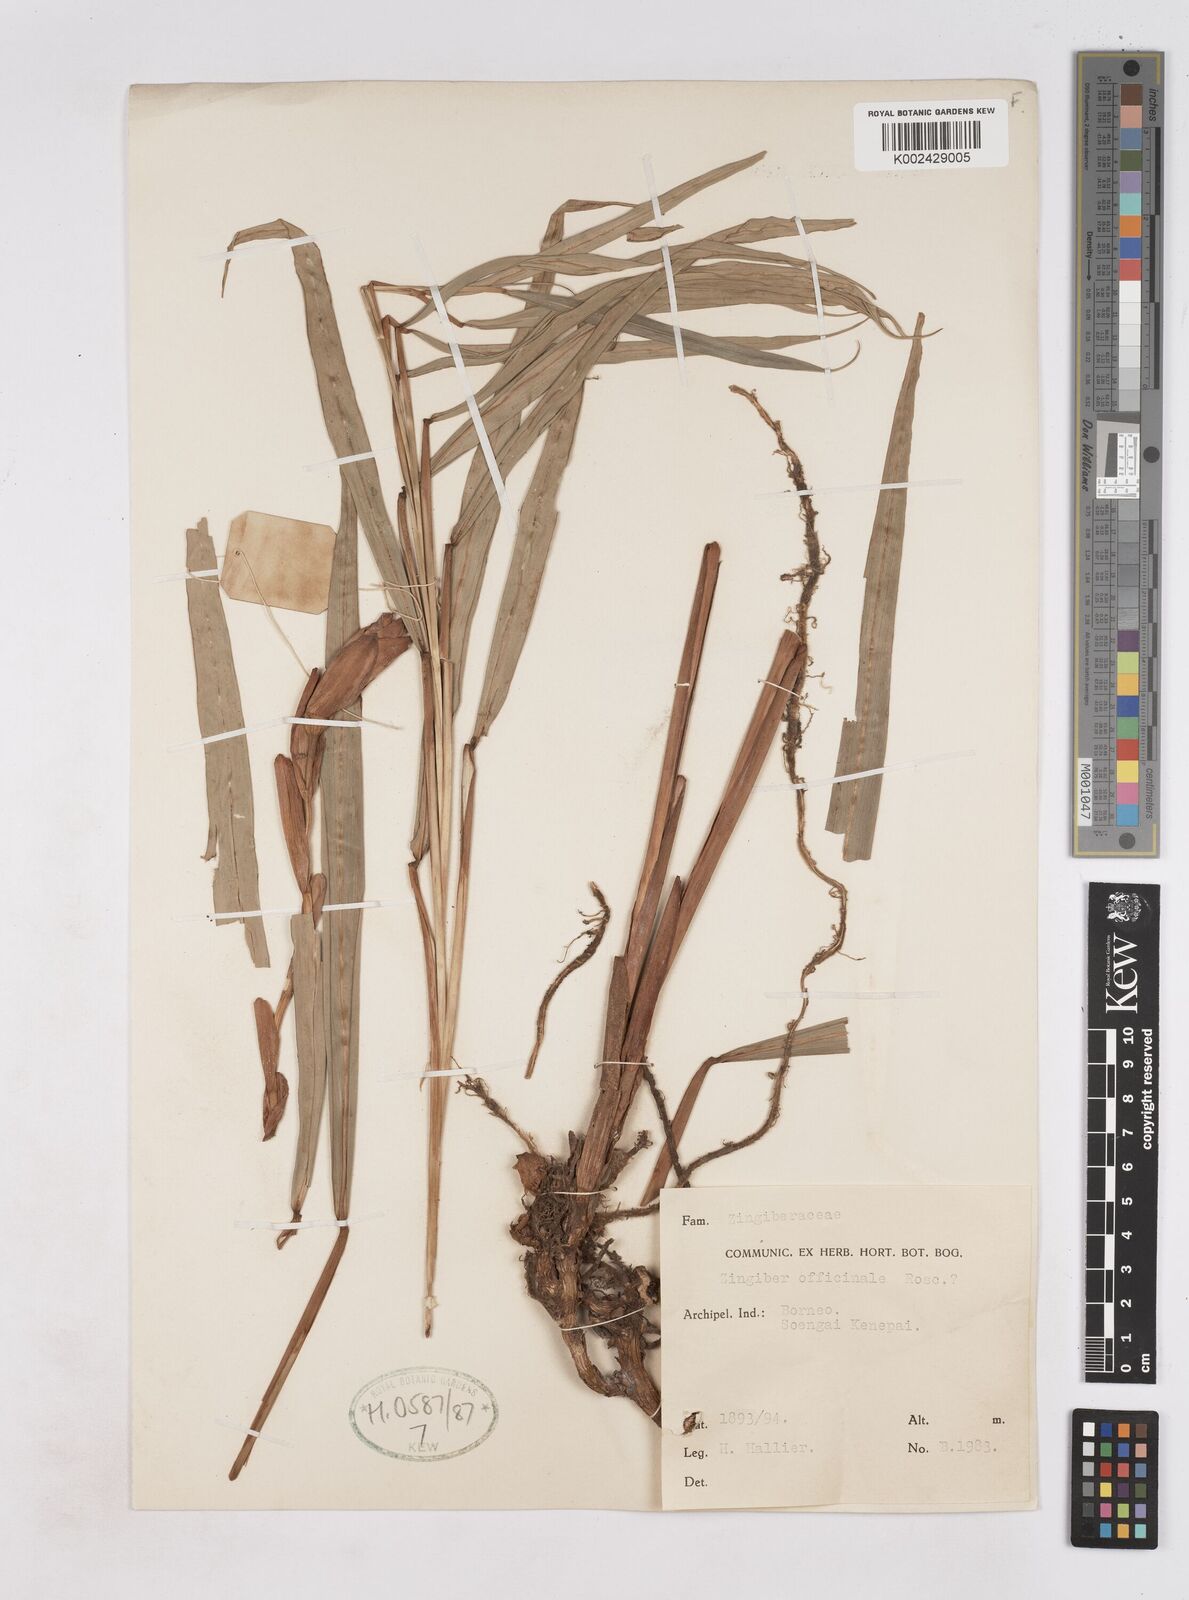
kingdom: Plantae
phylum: Tracheophyta
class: Liliopsida
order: Zingiberales
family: Zingiberaceae
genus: Zingiber
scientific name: Zingiber officinale
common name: Ginger
